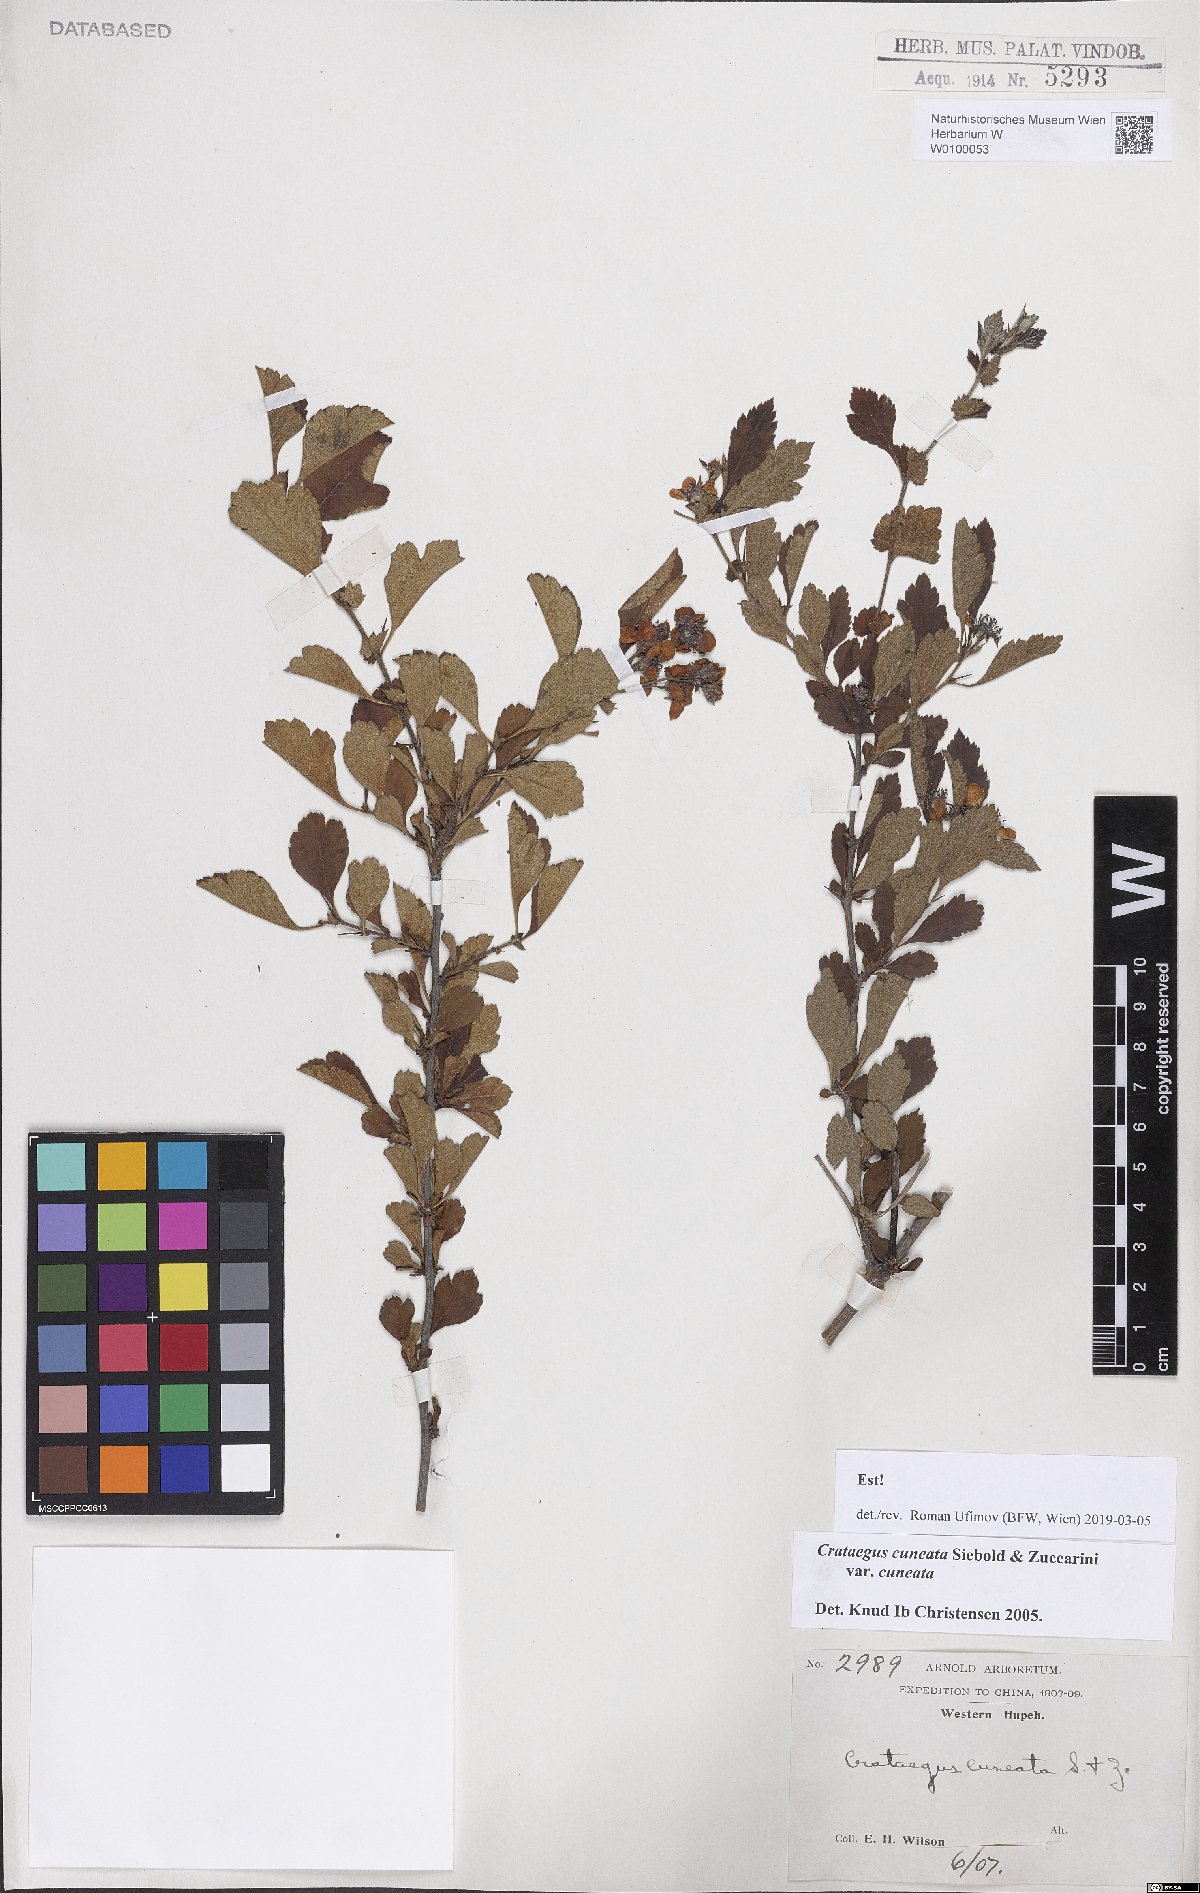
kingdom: Plantae
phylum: Tracheophyta
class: Magnoliopsida
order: Rosales
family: Rosaceae
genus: Crataegus
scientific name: Crataegus cuneata
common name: Chinese hawthorn
